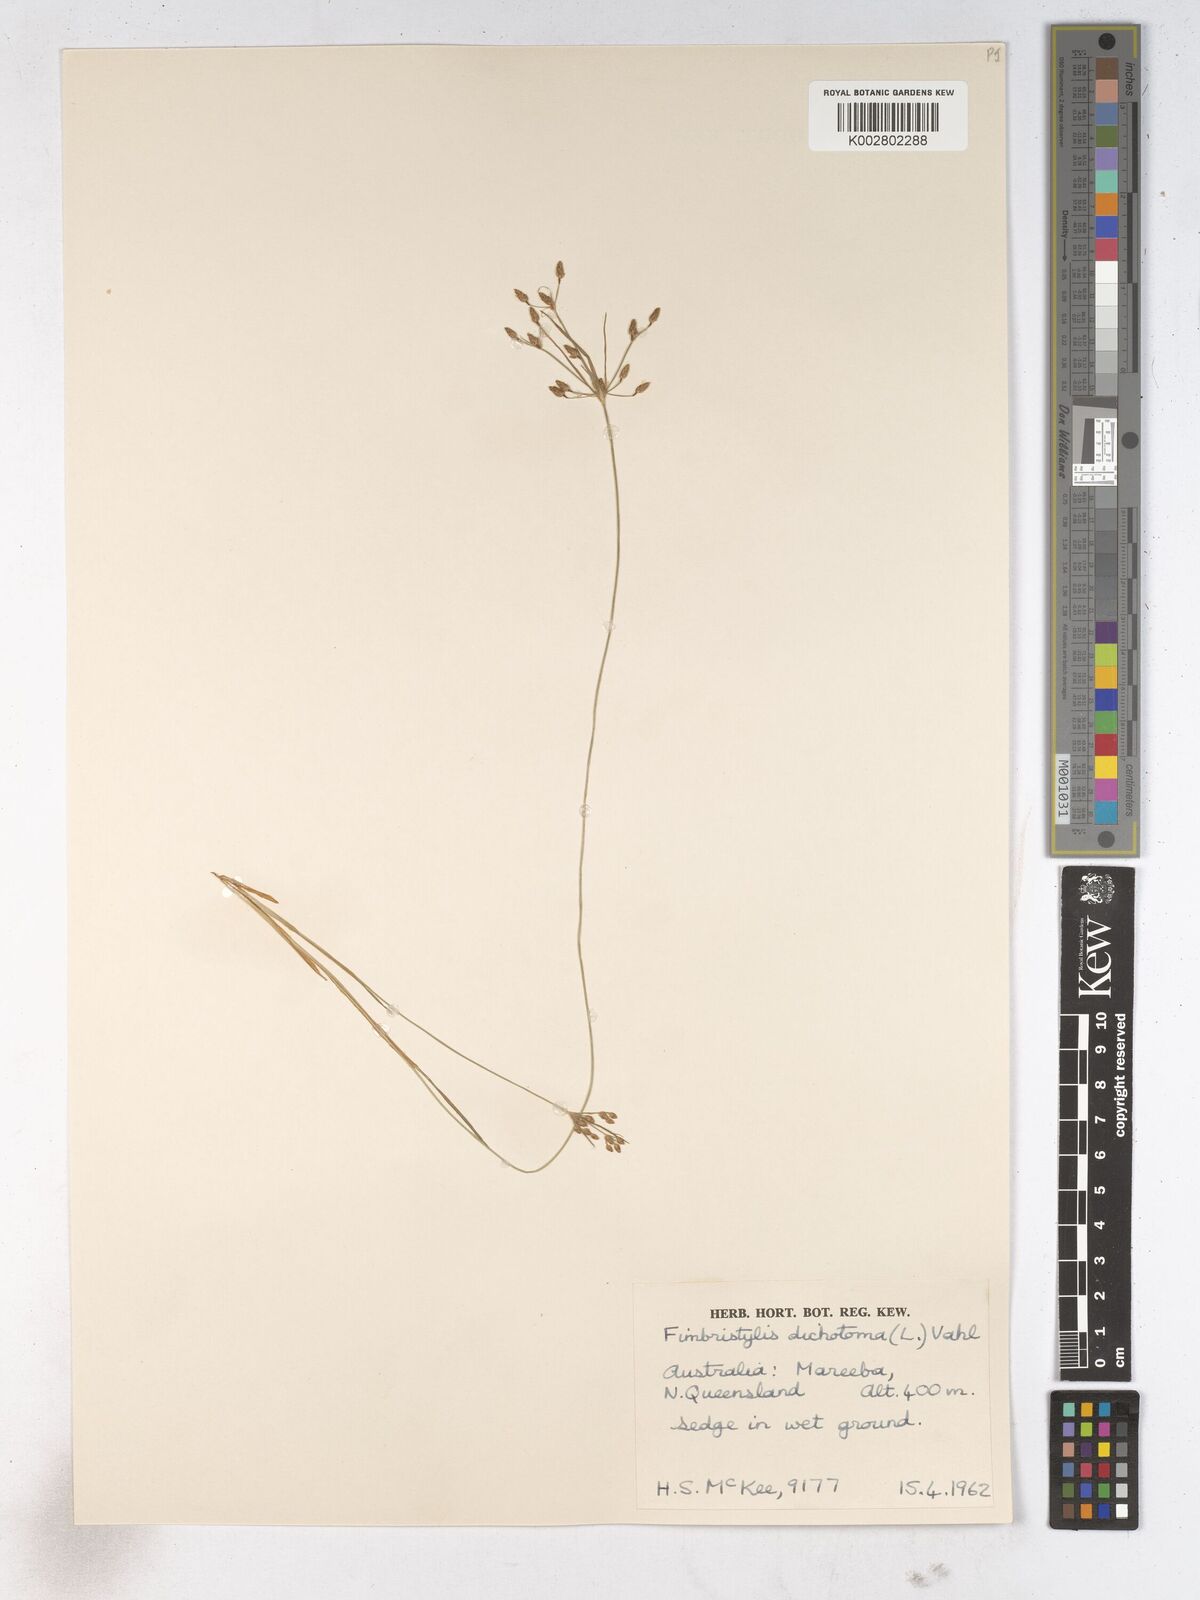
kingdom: Plantae
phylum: Tracheophyta
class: Liliopsida
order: Poales
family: Cyperaceae
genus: Fimbristylis
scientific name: Fimbristylis dichotoma
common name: Forked fimbry
